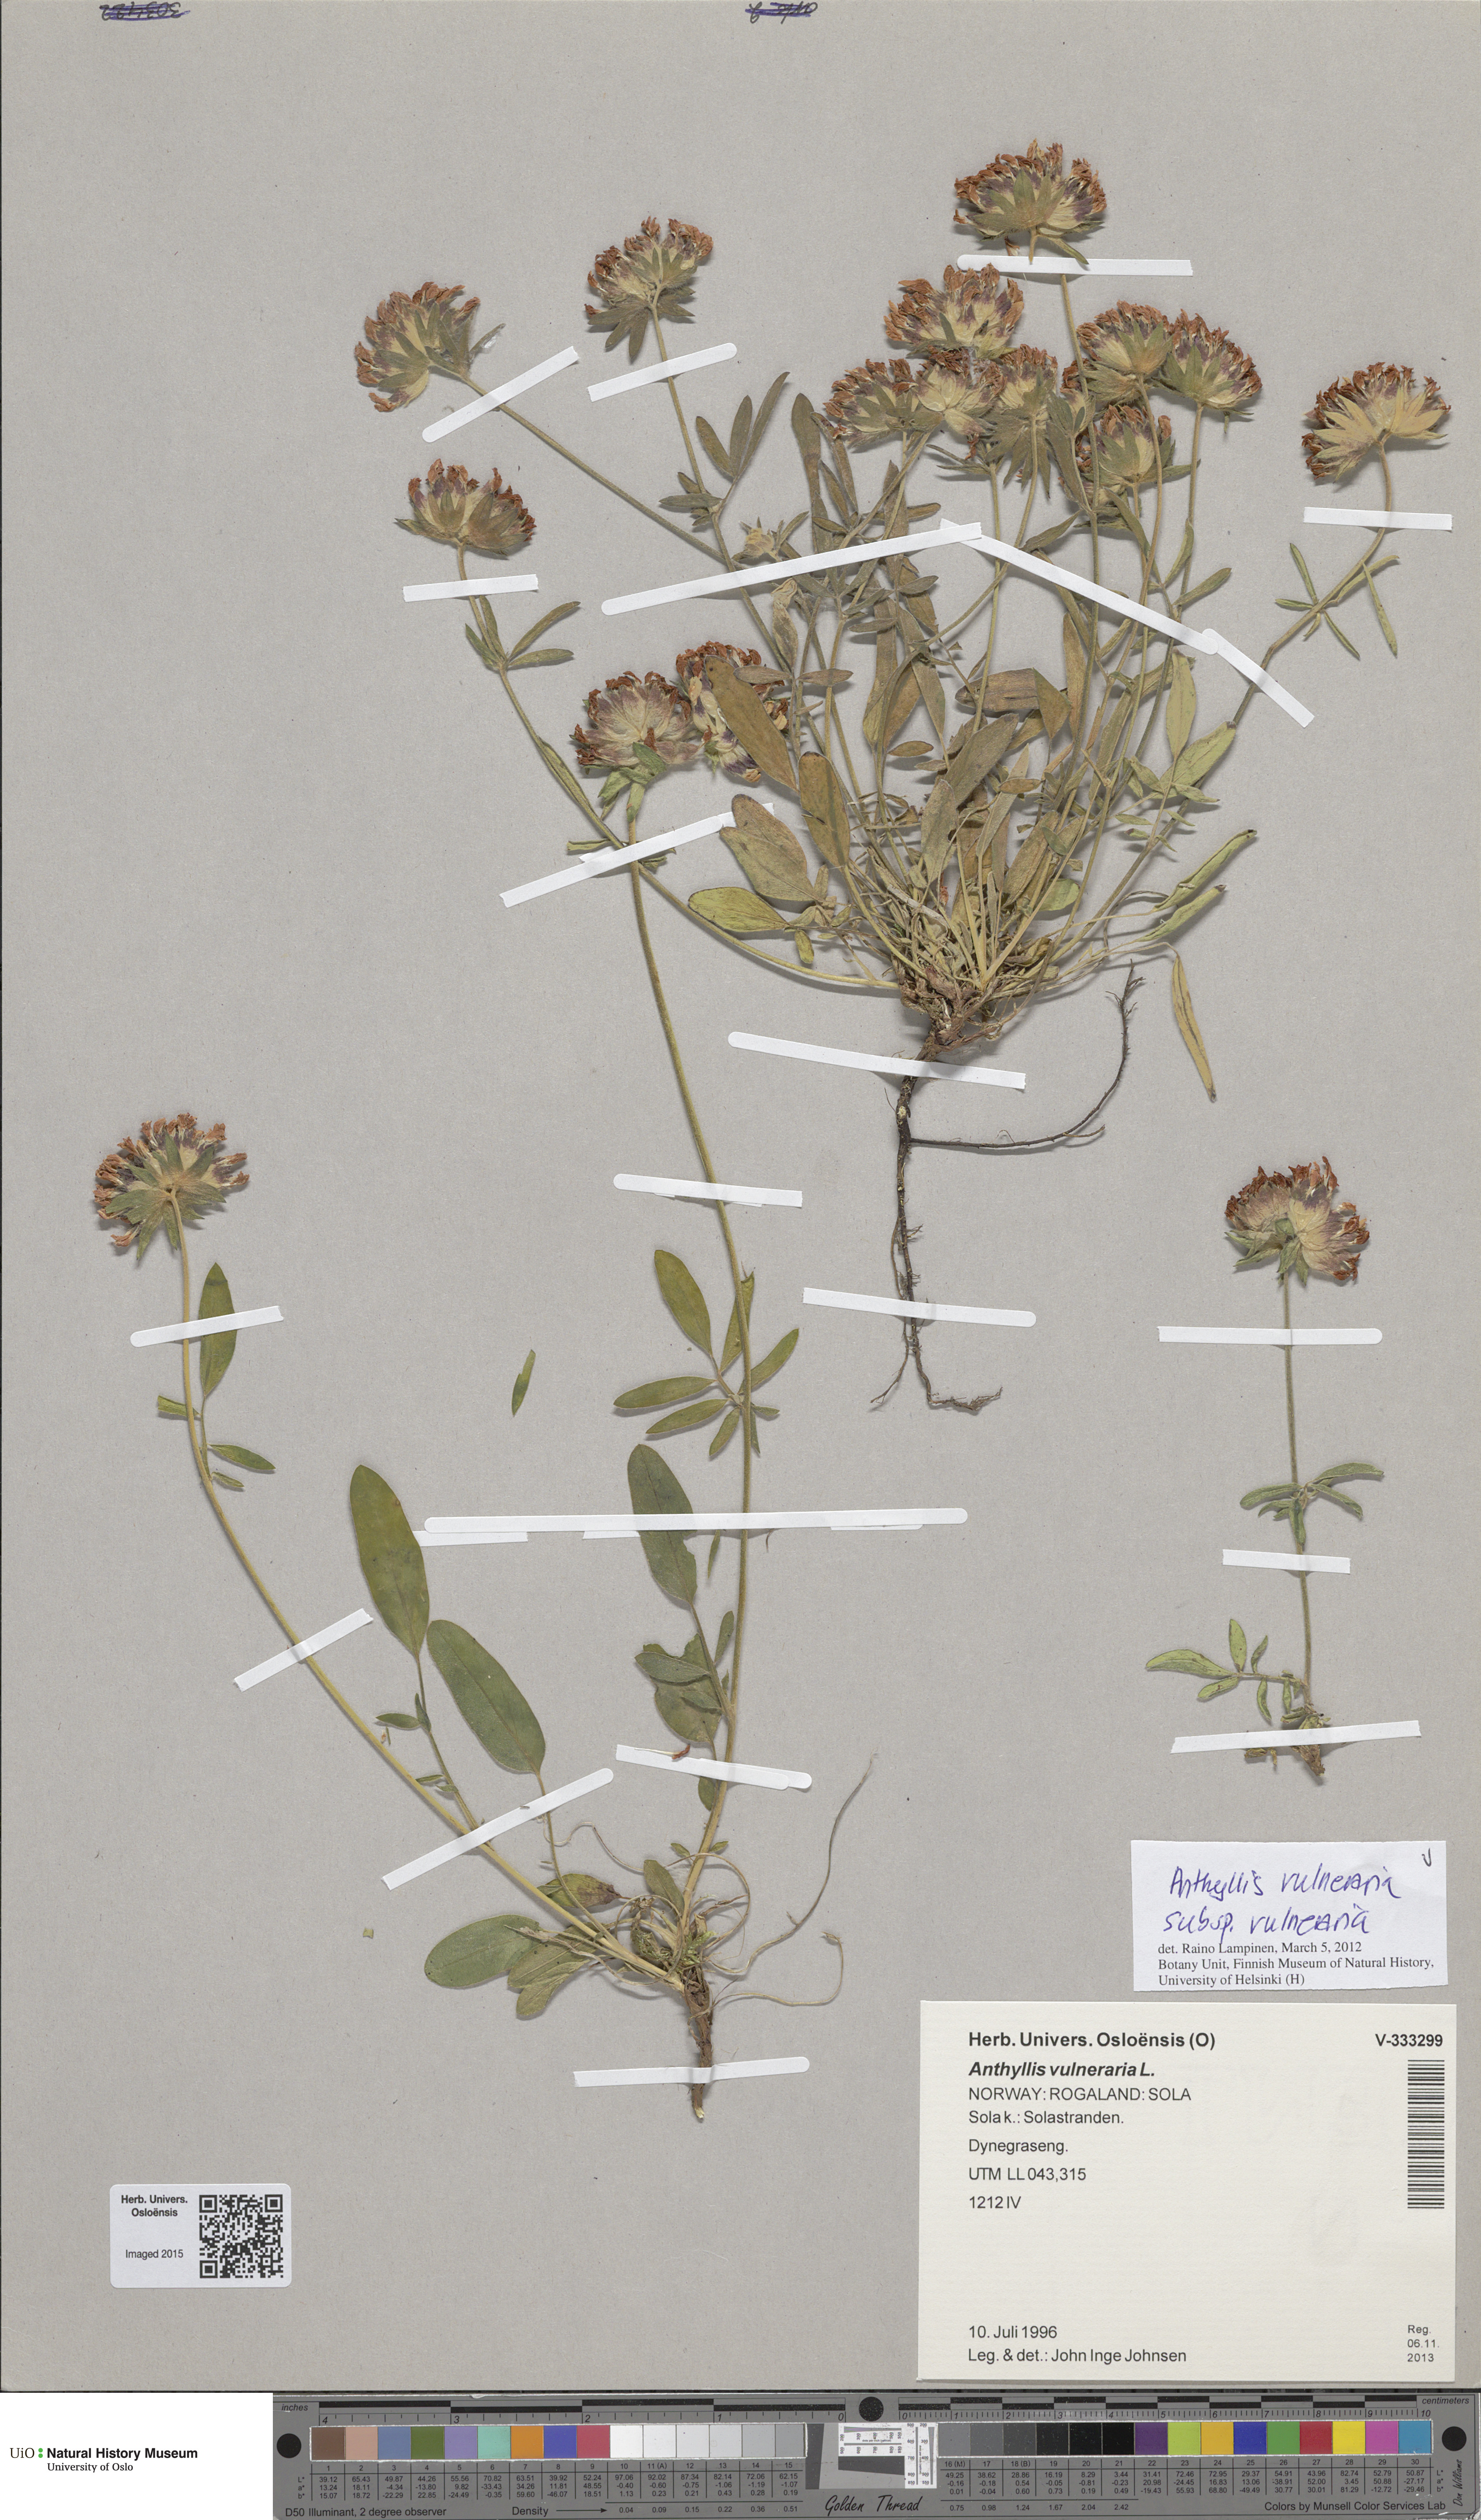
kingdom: Plantae
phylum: Tracheophyta
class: Magnoliopsida
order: Fabales
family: Fabaceae
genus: Anthyllis
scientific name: Anthyllis vulneraria
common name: Kidney vetch
